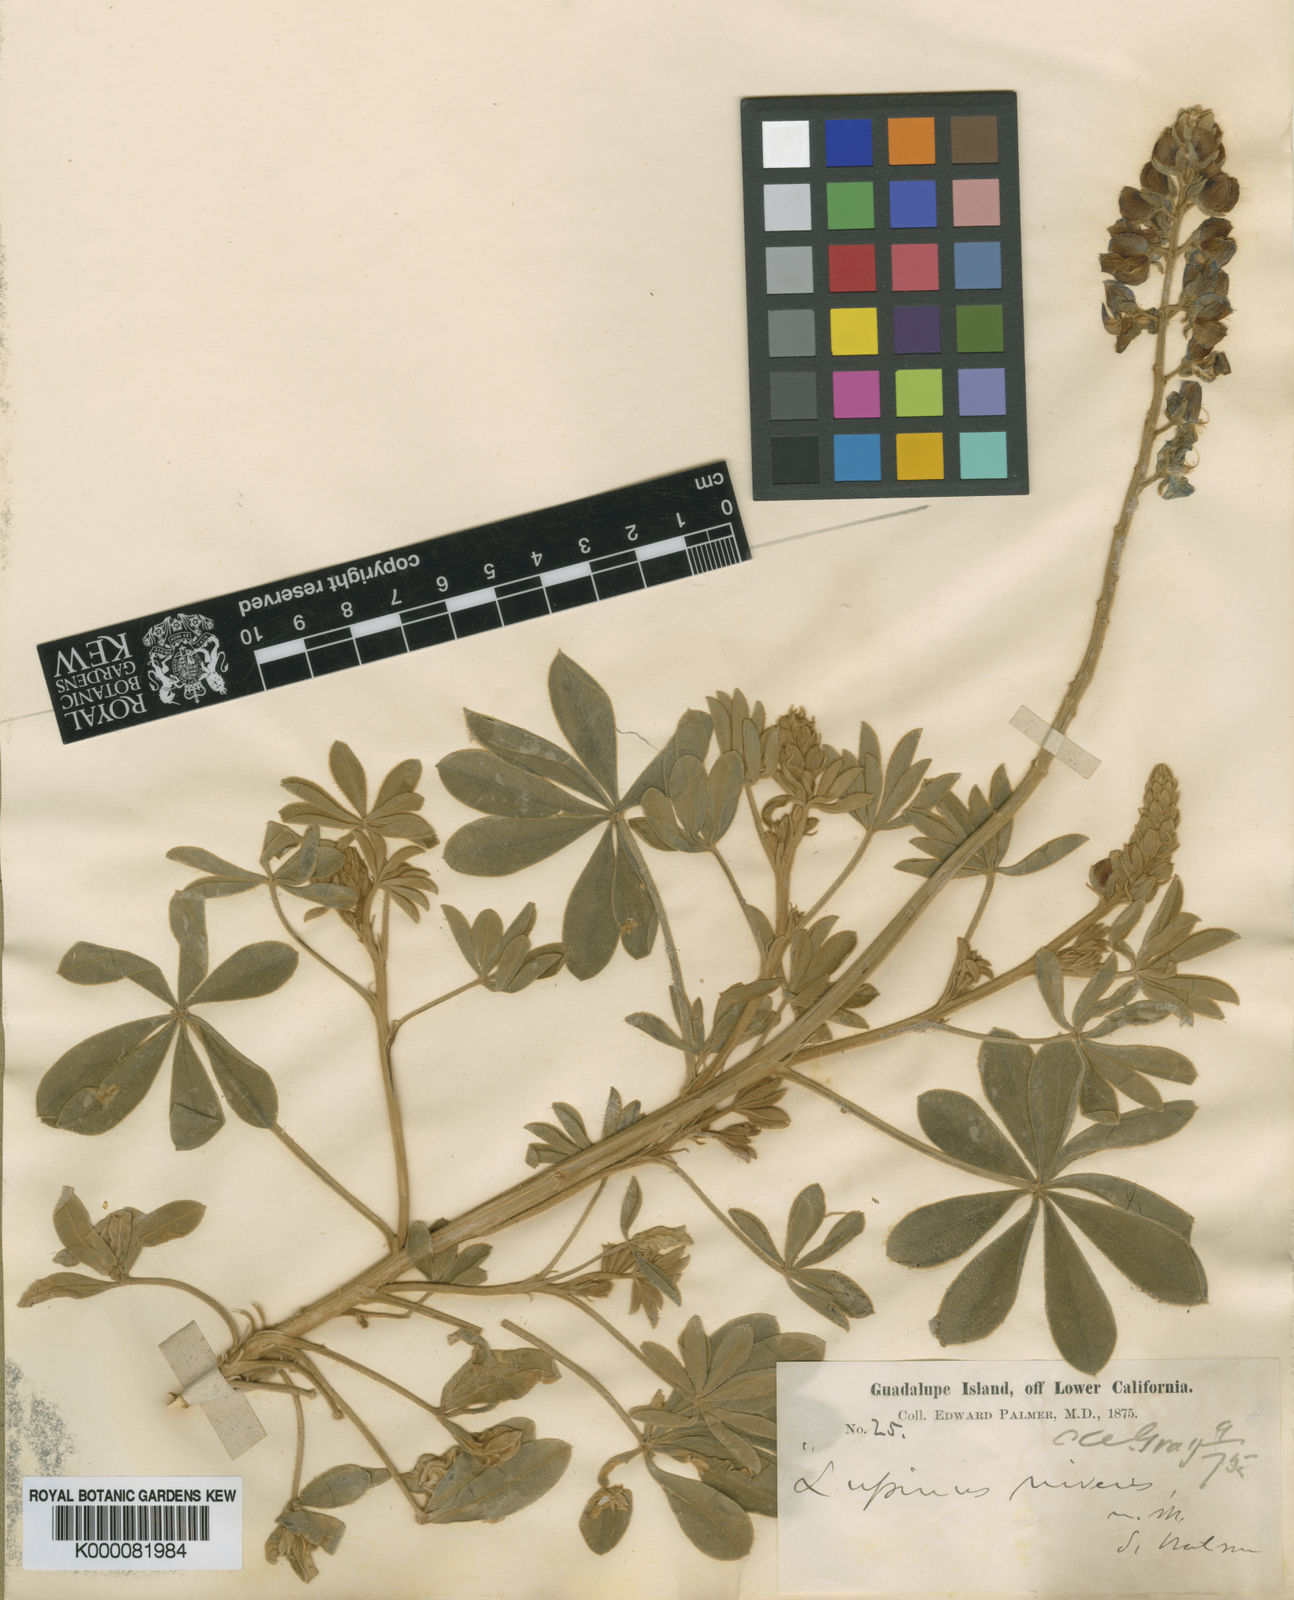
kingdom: Plantae
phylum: Tracheophyta
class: Magnoliopsida
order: Fabales
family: Fabaceae
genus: Lupinus
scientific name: Lupinus niveus
